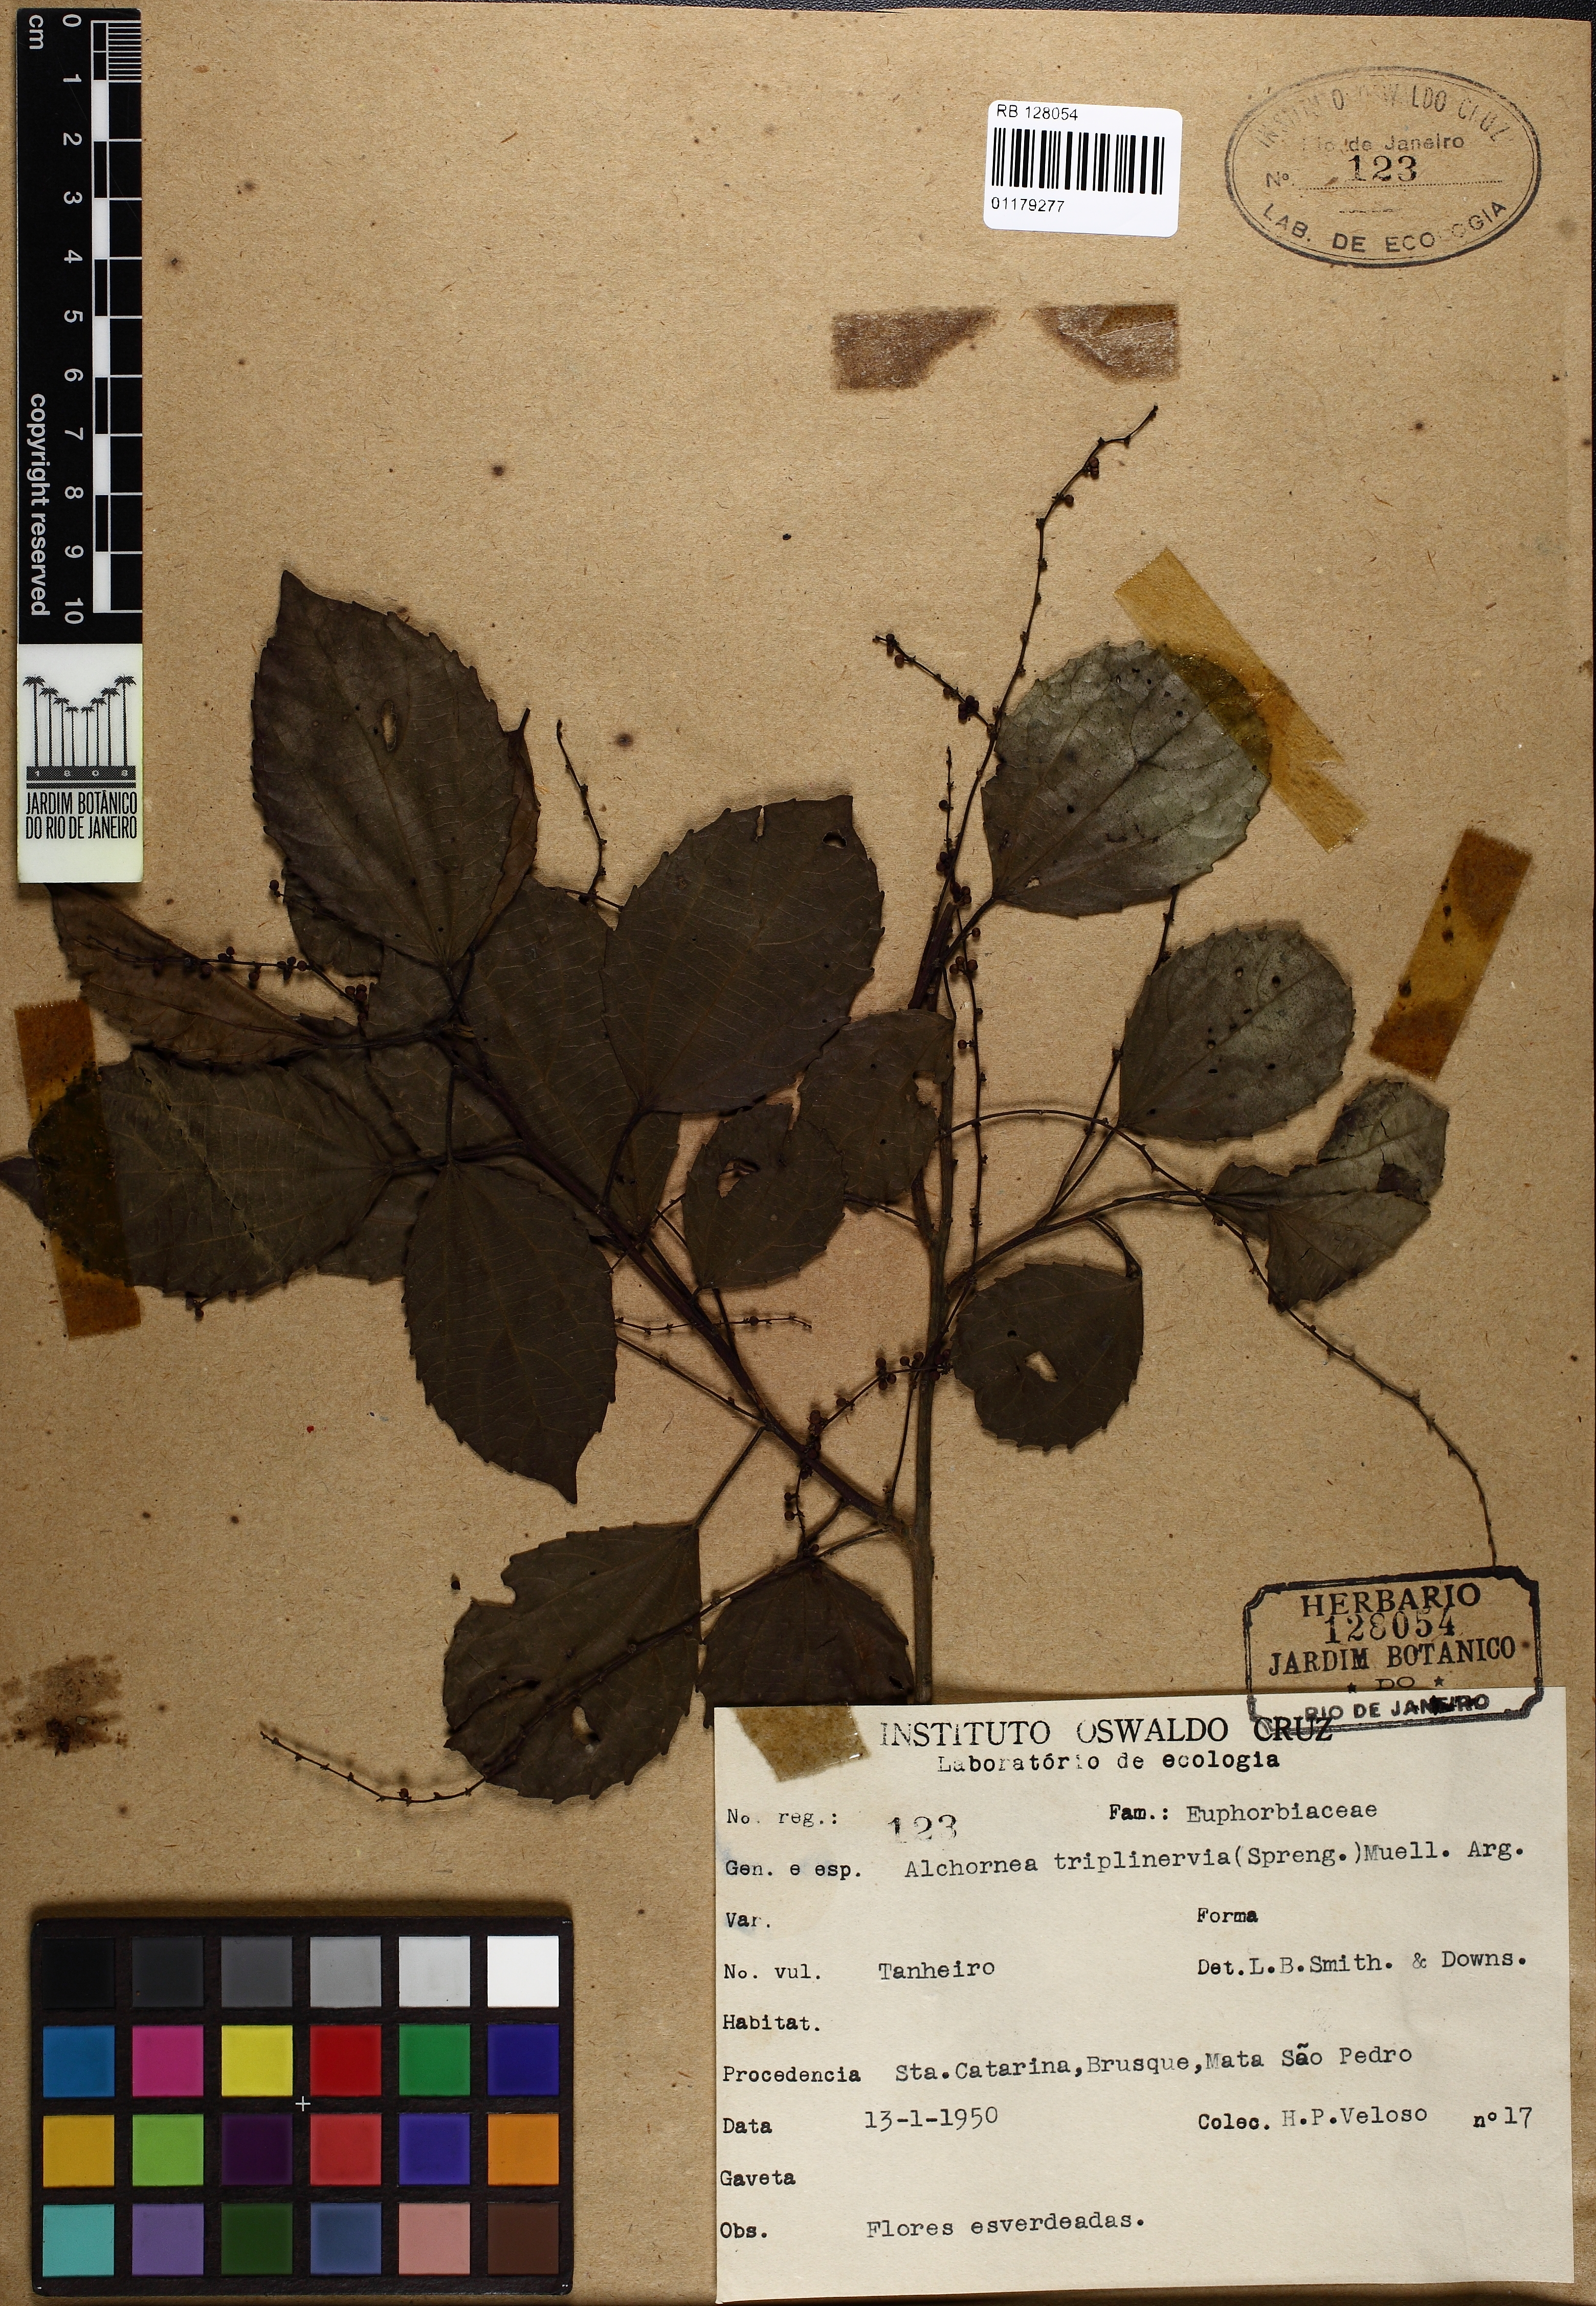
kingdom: Plantae
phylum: Tracheophyta
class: Magnoliopsida
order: Malpighiales
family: Euphorbiaceae
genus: Alchornea
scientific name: Alchornea triplinervia
